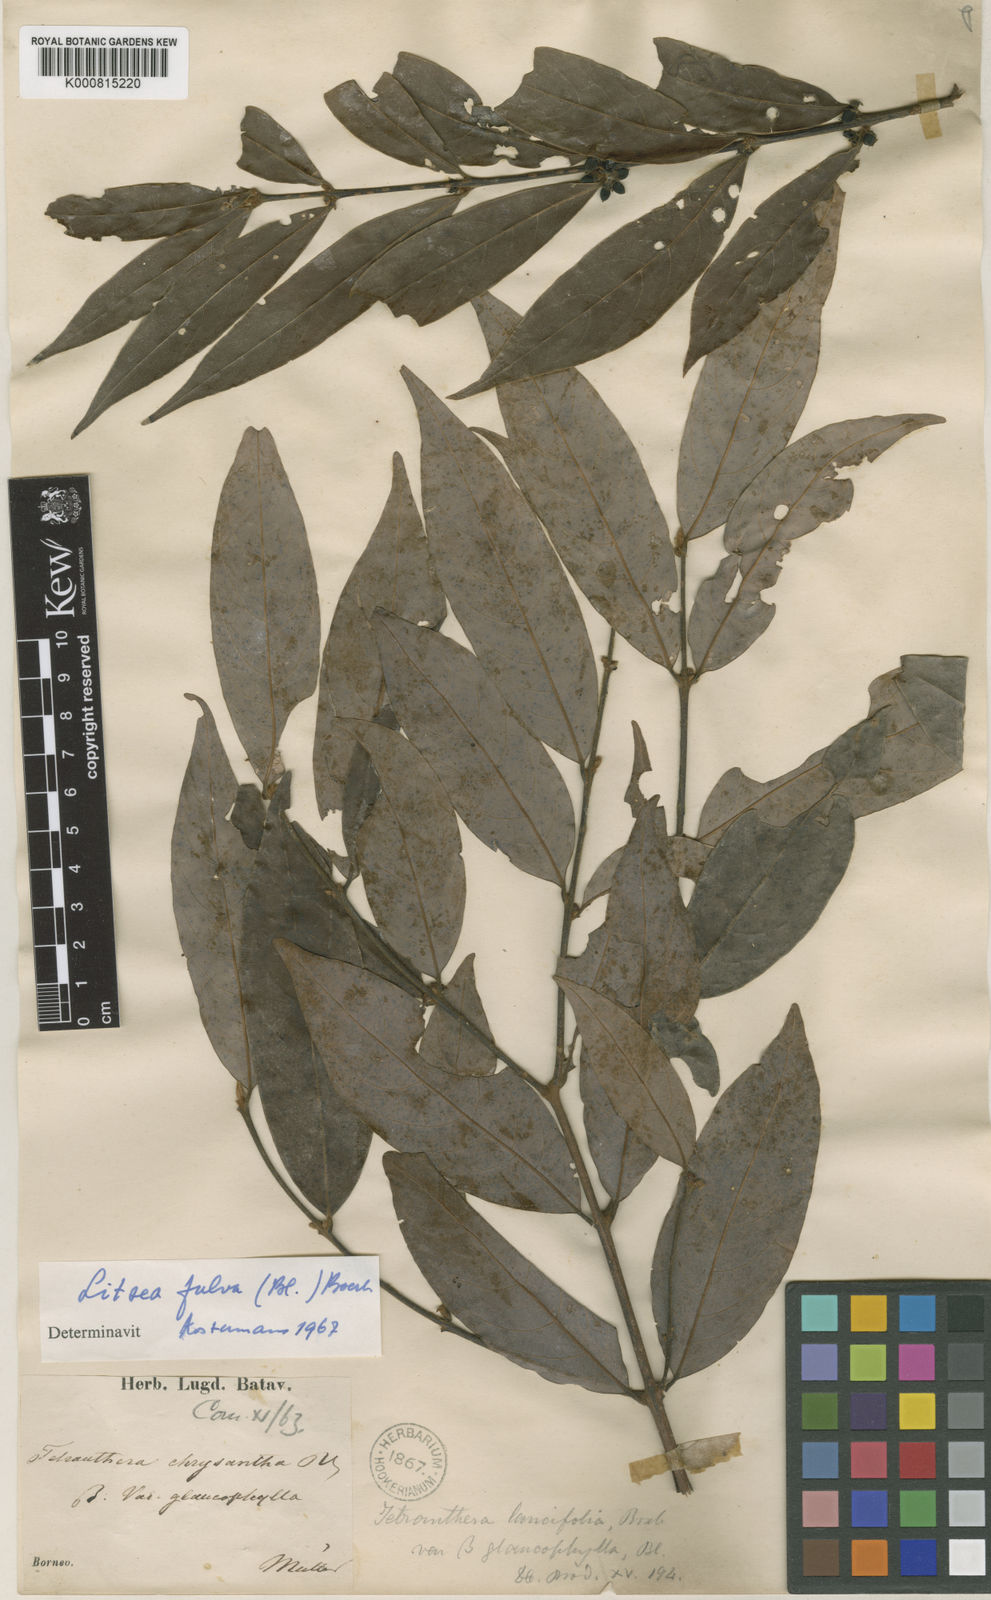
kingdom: Plantae
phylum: Tracheophyta
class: Magnoliopsida
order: Laurales
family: Lauraceae
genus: Litsea
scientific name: Litsea fulva
